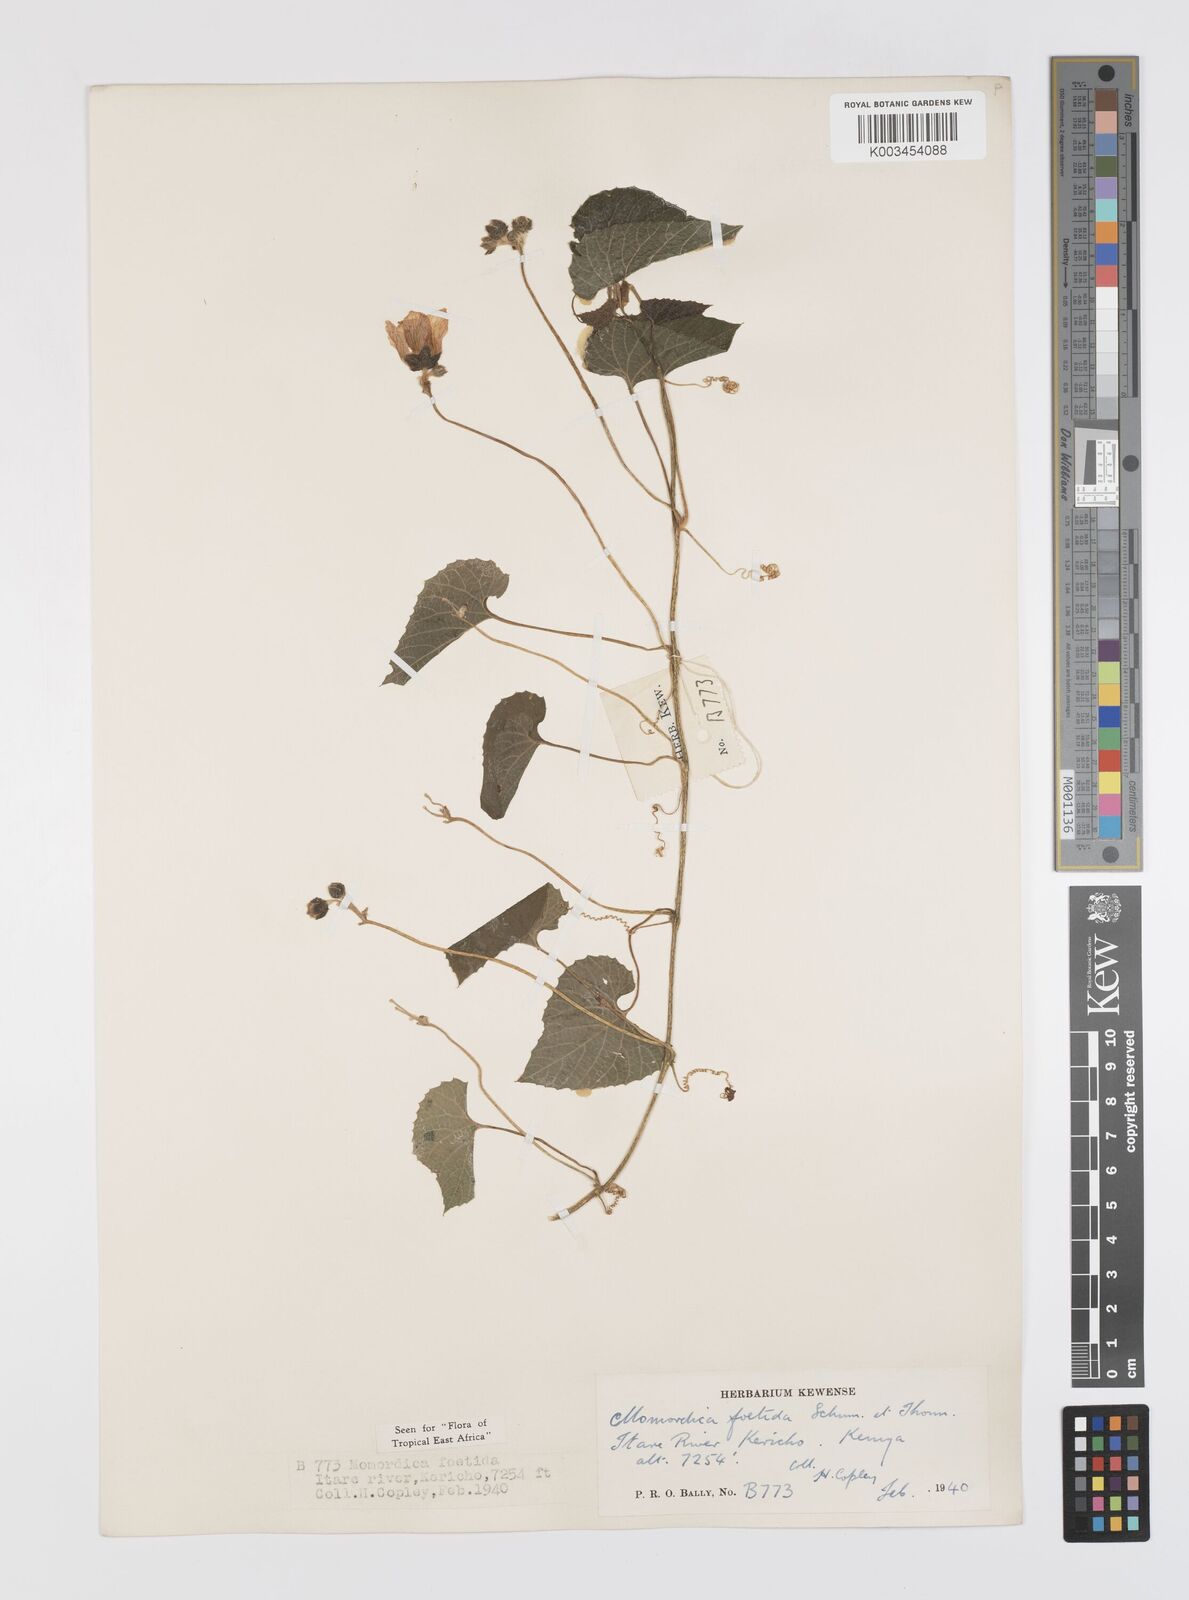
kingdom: Plantae
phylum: Tracheophyta
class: Magnoliopsida
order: Cucurbitales
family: Cucurbitaceae
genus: Momordica
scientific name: Momordica foetida
